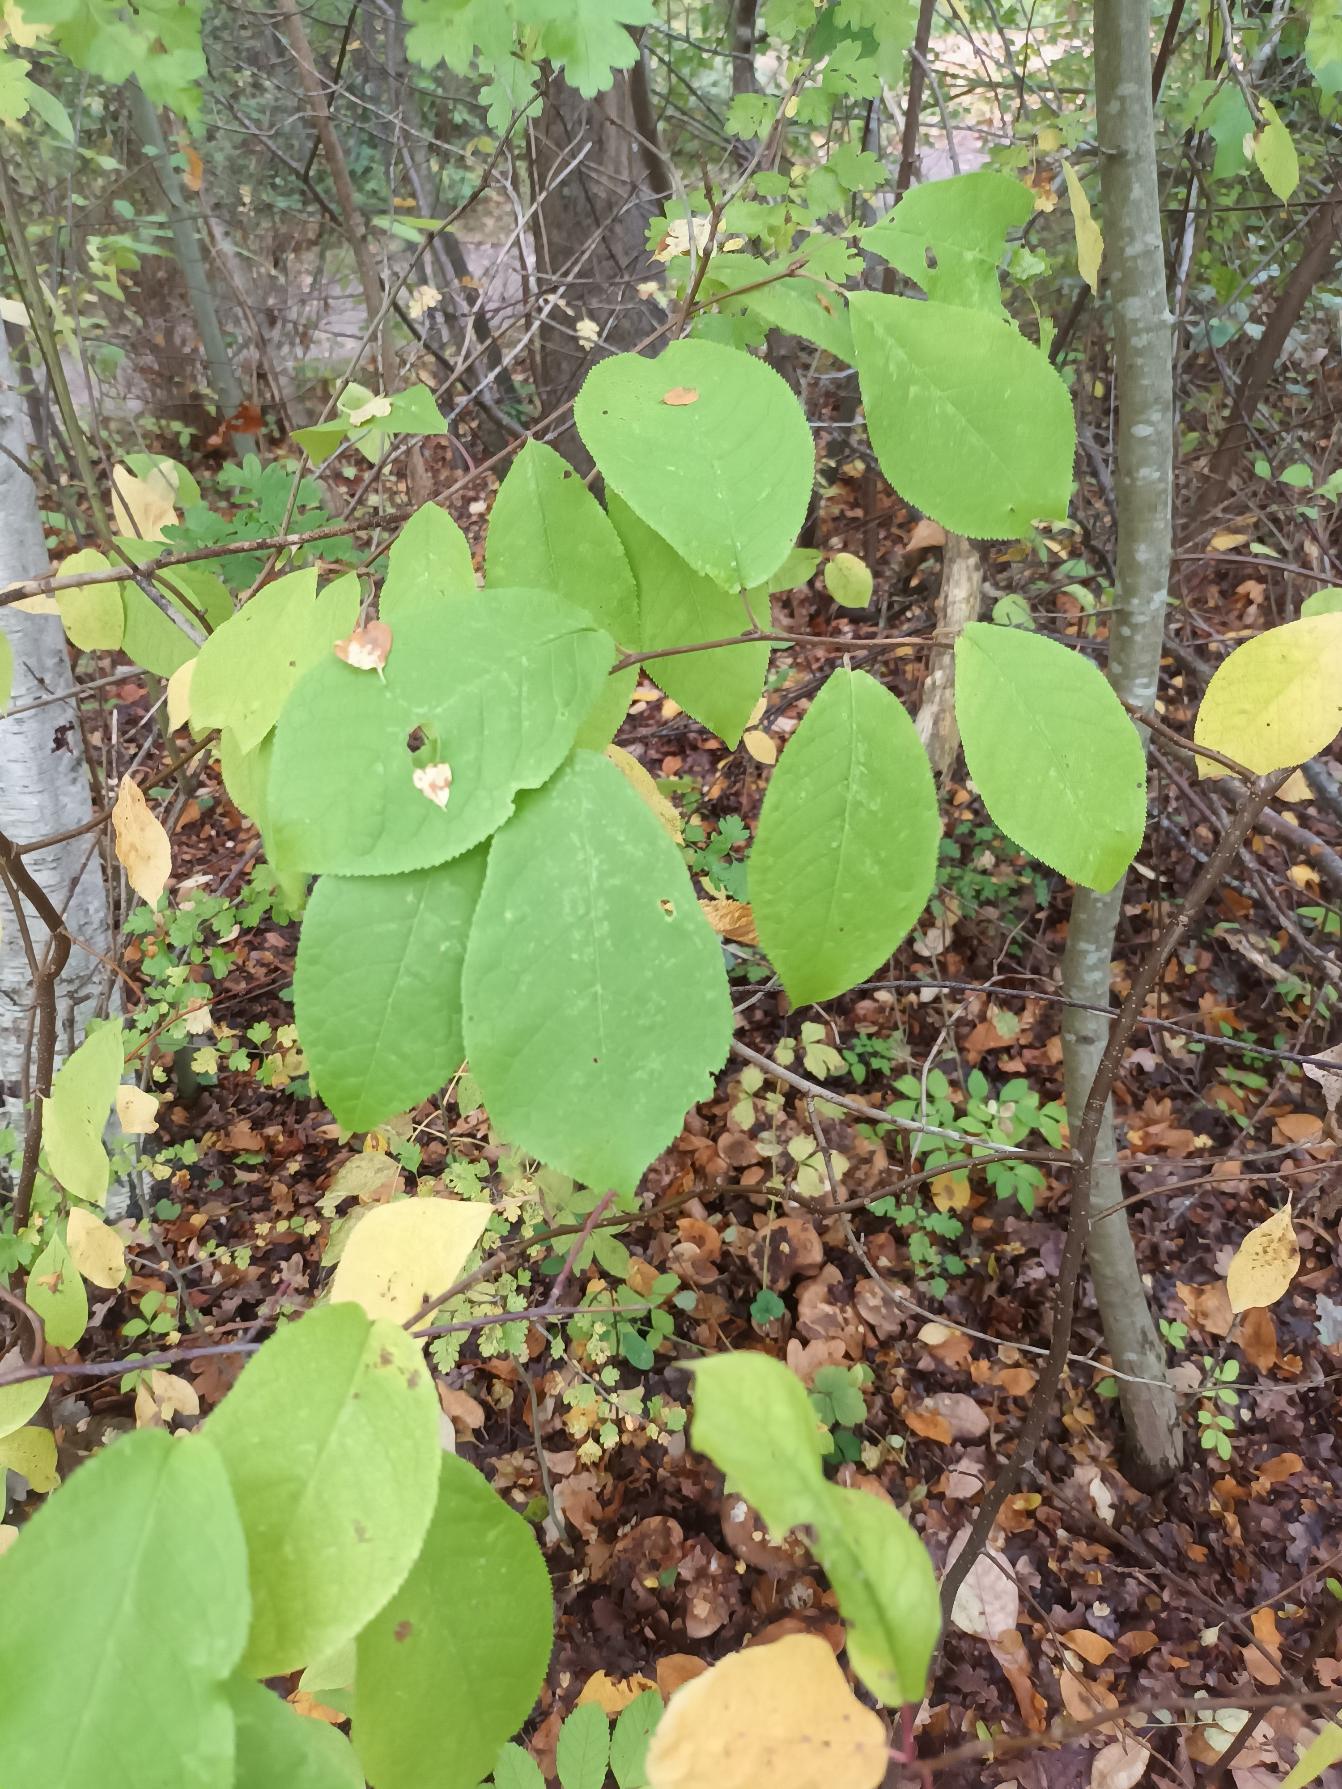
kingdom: Plantae
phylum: Tracheophyta
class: Magnoliopsida
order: Rosales
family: Rosaceae
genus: Prunus
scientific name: Prunus padus
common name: Almindelig hæg
